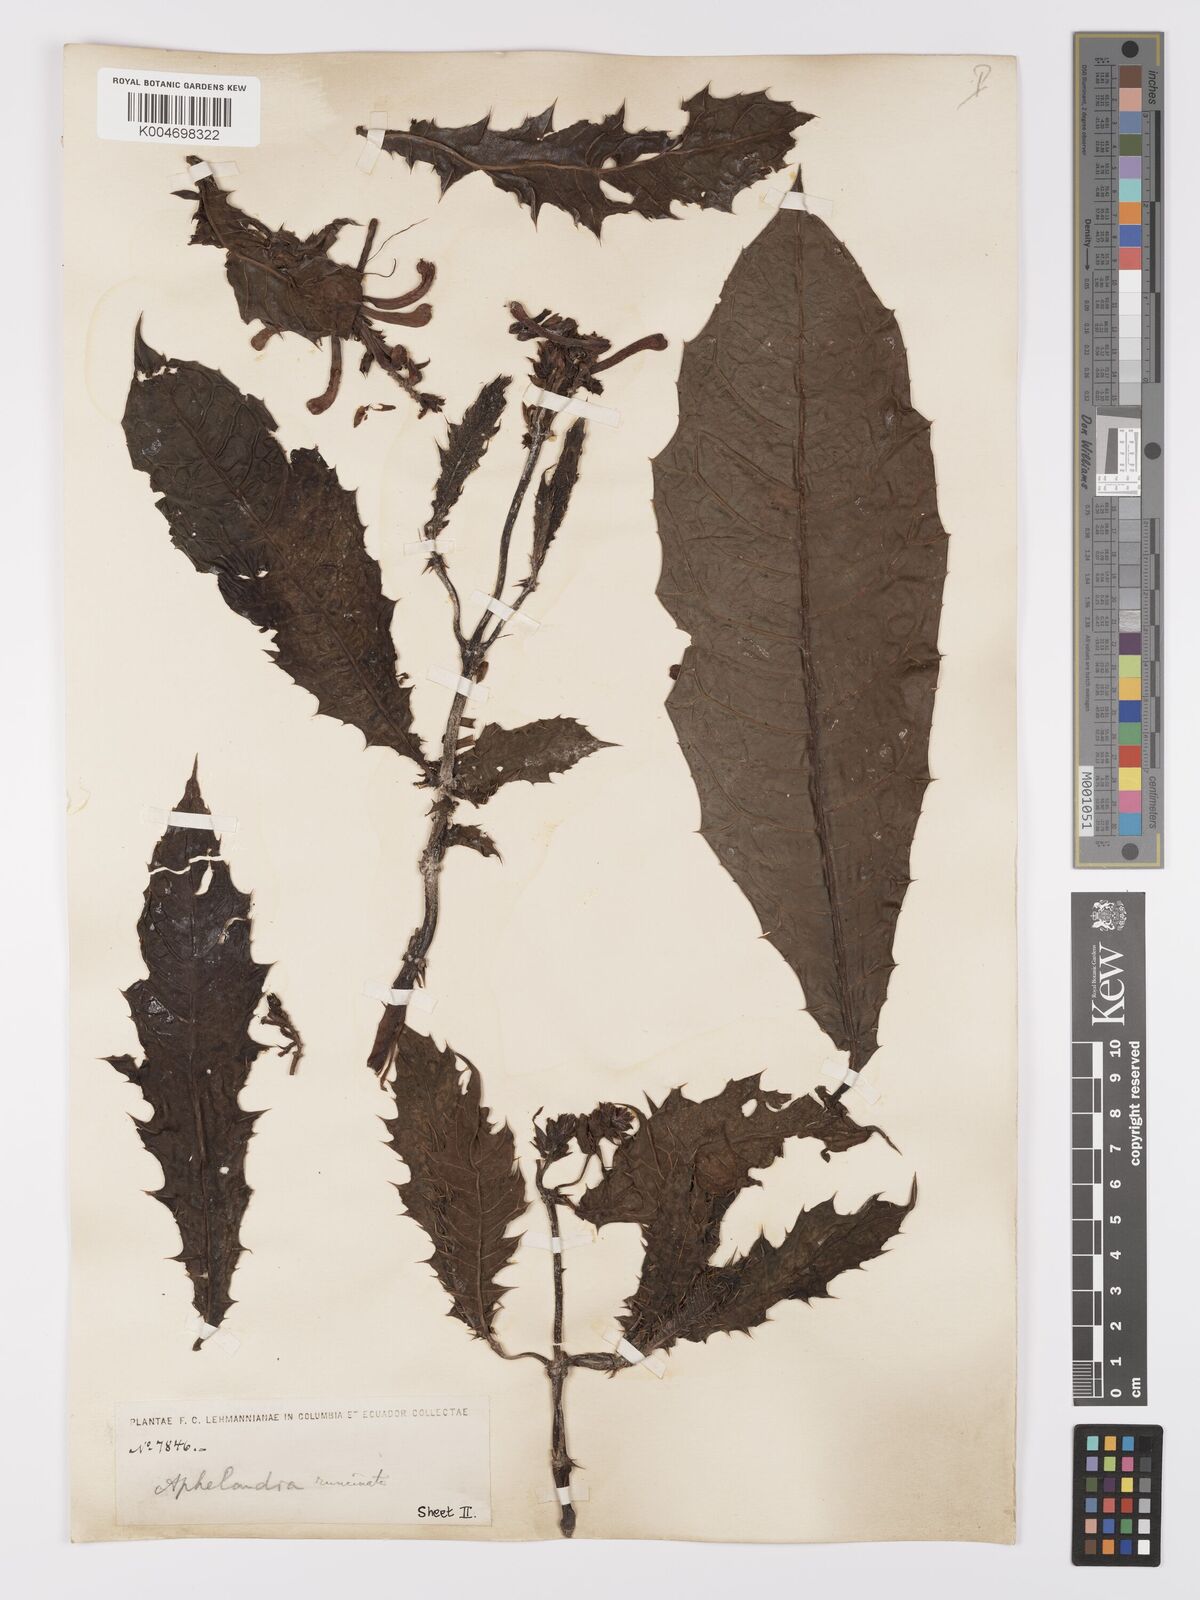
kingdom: Plantae
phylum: Tracheophyta
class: Magnoliopsida
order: Lamiales
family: Acanthaceae
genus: Aphelandra
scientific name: Aphelandra runcinata
